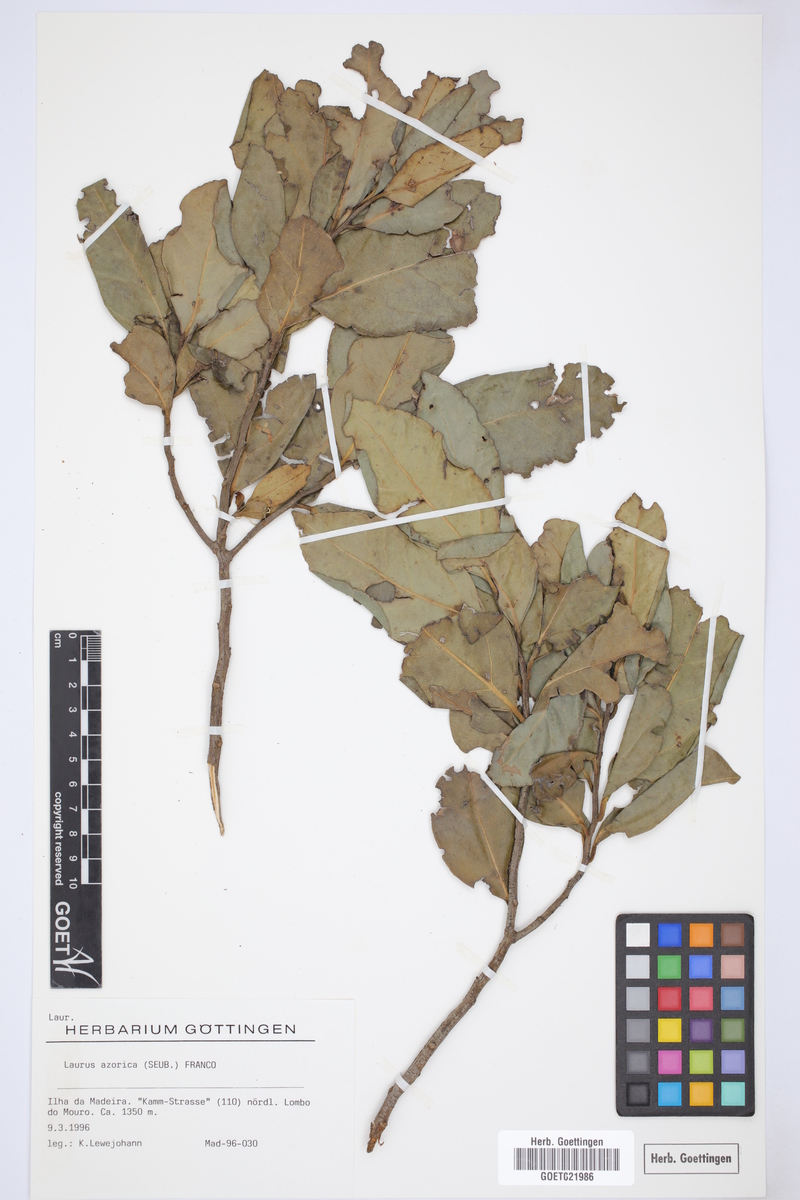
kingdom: Plantae
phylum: Tracheophyta
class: Magnoliopsida
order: Laurales
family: Lauraceae
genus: Laurus
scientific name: Laurus azorica
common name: Macaronesian laurel
